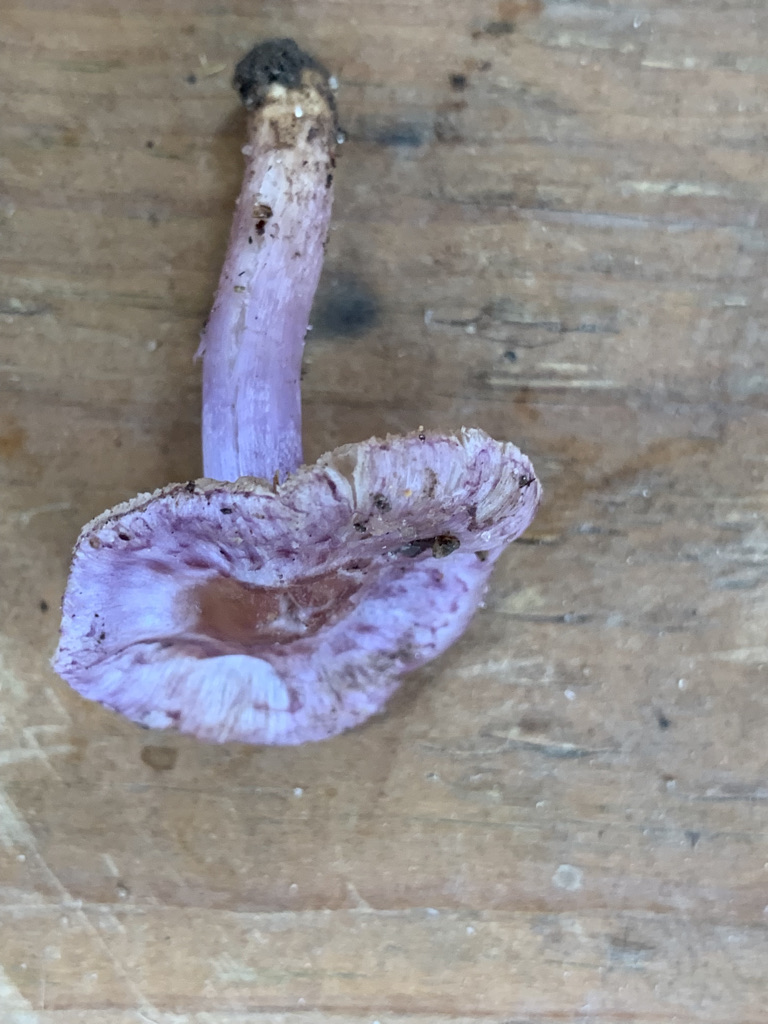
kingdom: Fungi
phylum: Basidiomycota
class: Agaricomycetes
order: Agaricales
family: Inocybaceae
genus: Inocybe
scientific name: Inocybe ionolepis
